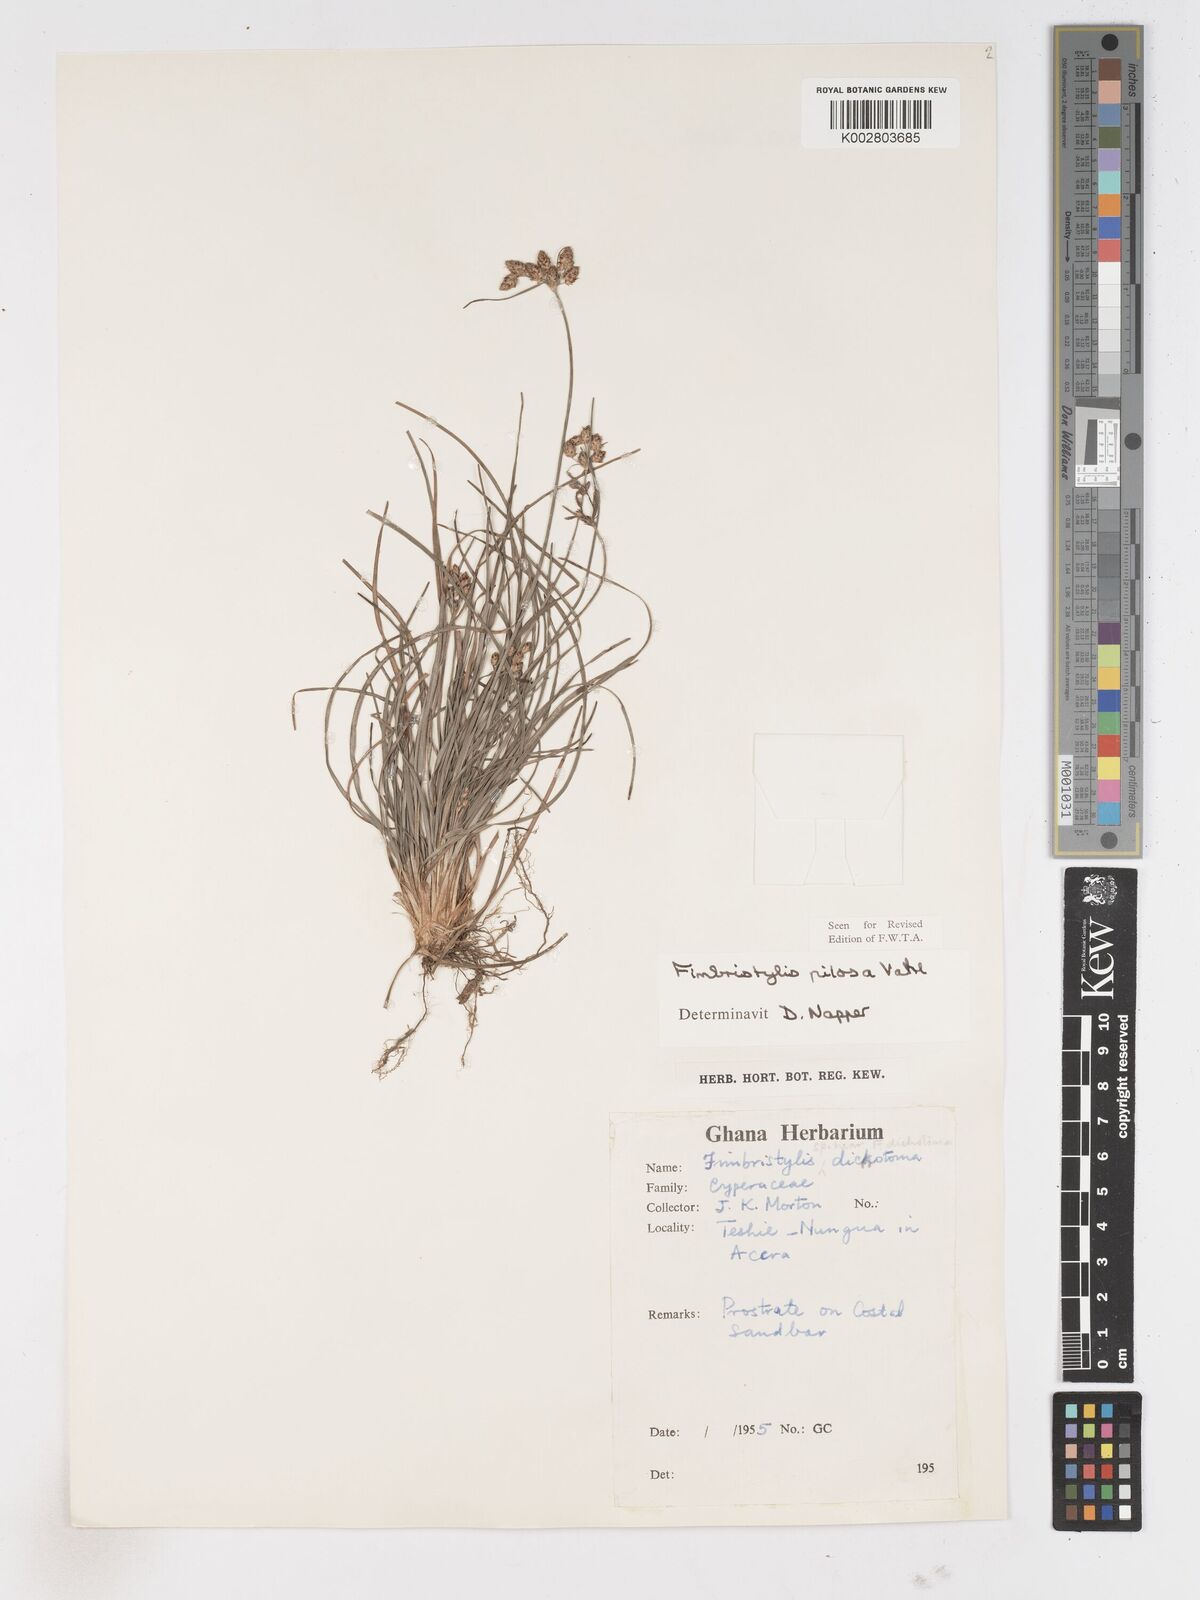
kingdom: Plantae
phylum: Tracheophyta
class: Liliopsida
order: Poales
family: Cyperaceae
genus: Fimbristylis
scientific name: Fimbristylis pilosa
